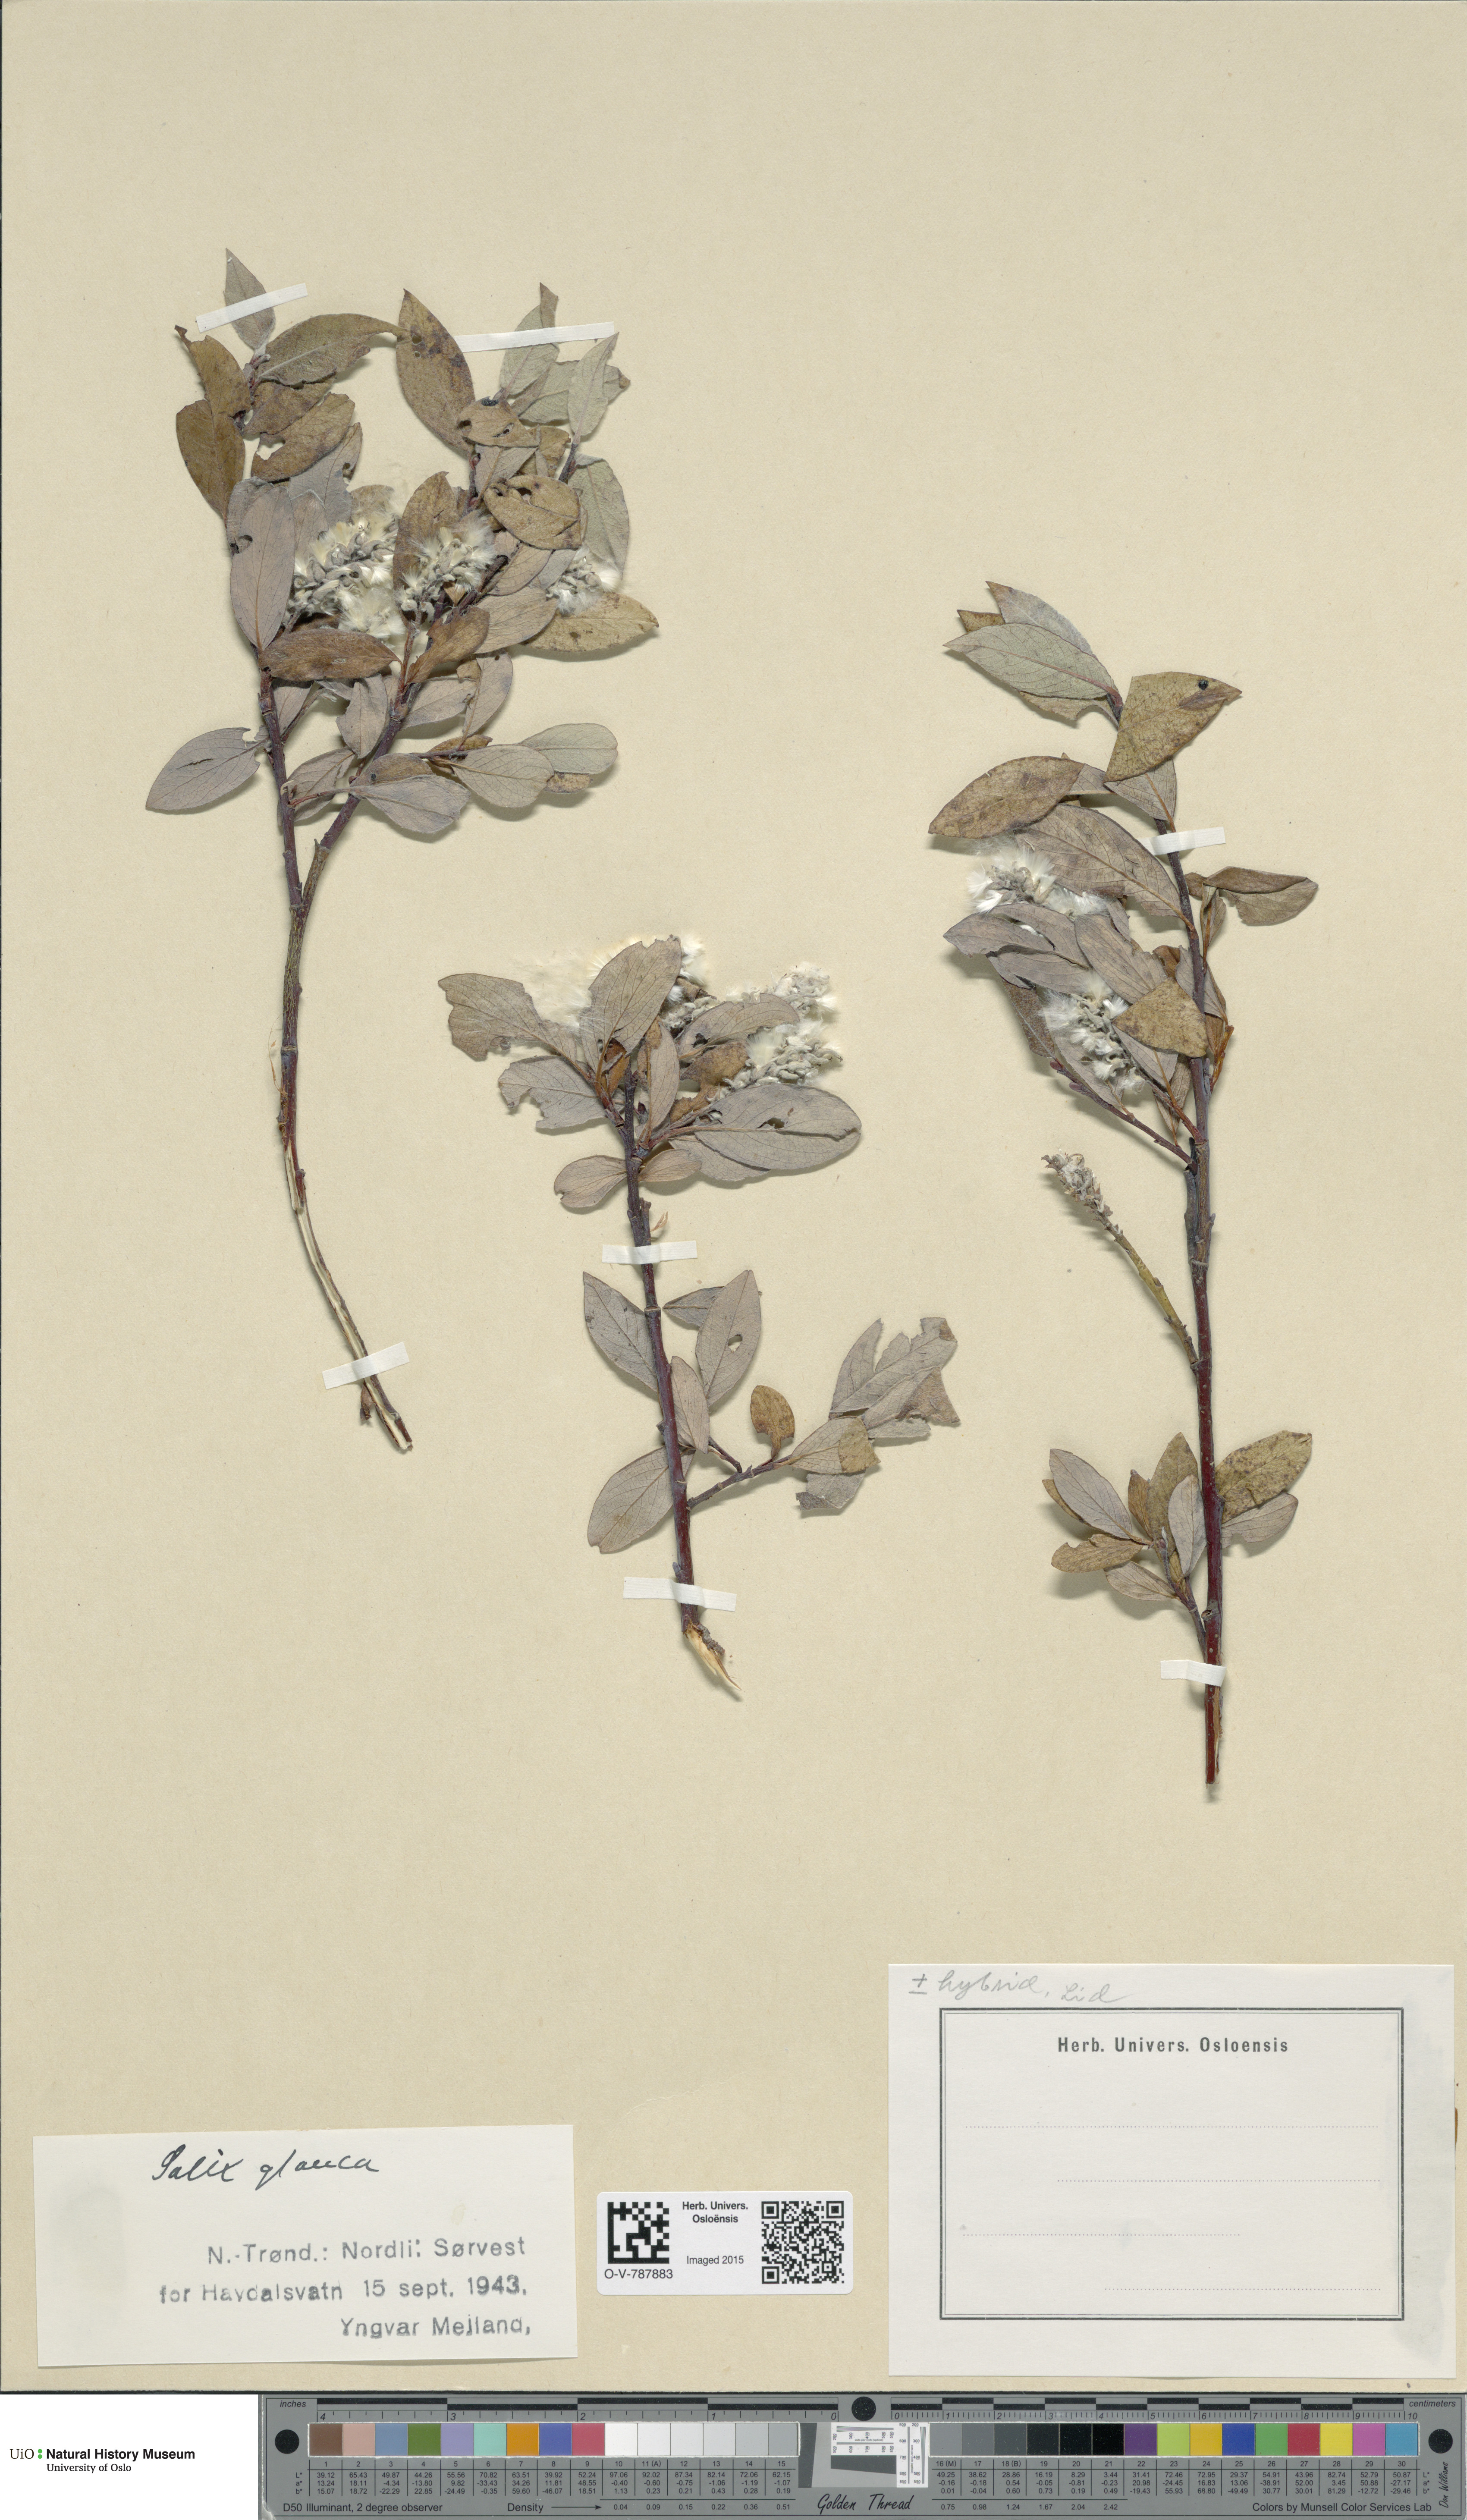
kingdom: Plantae
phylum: Tracheophyta
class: Magnoliopsida
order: Malpighiales
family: Salicaceae
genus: Salix
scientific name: Salix glauca
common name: Glaucous willow
